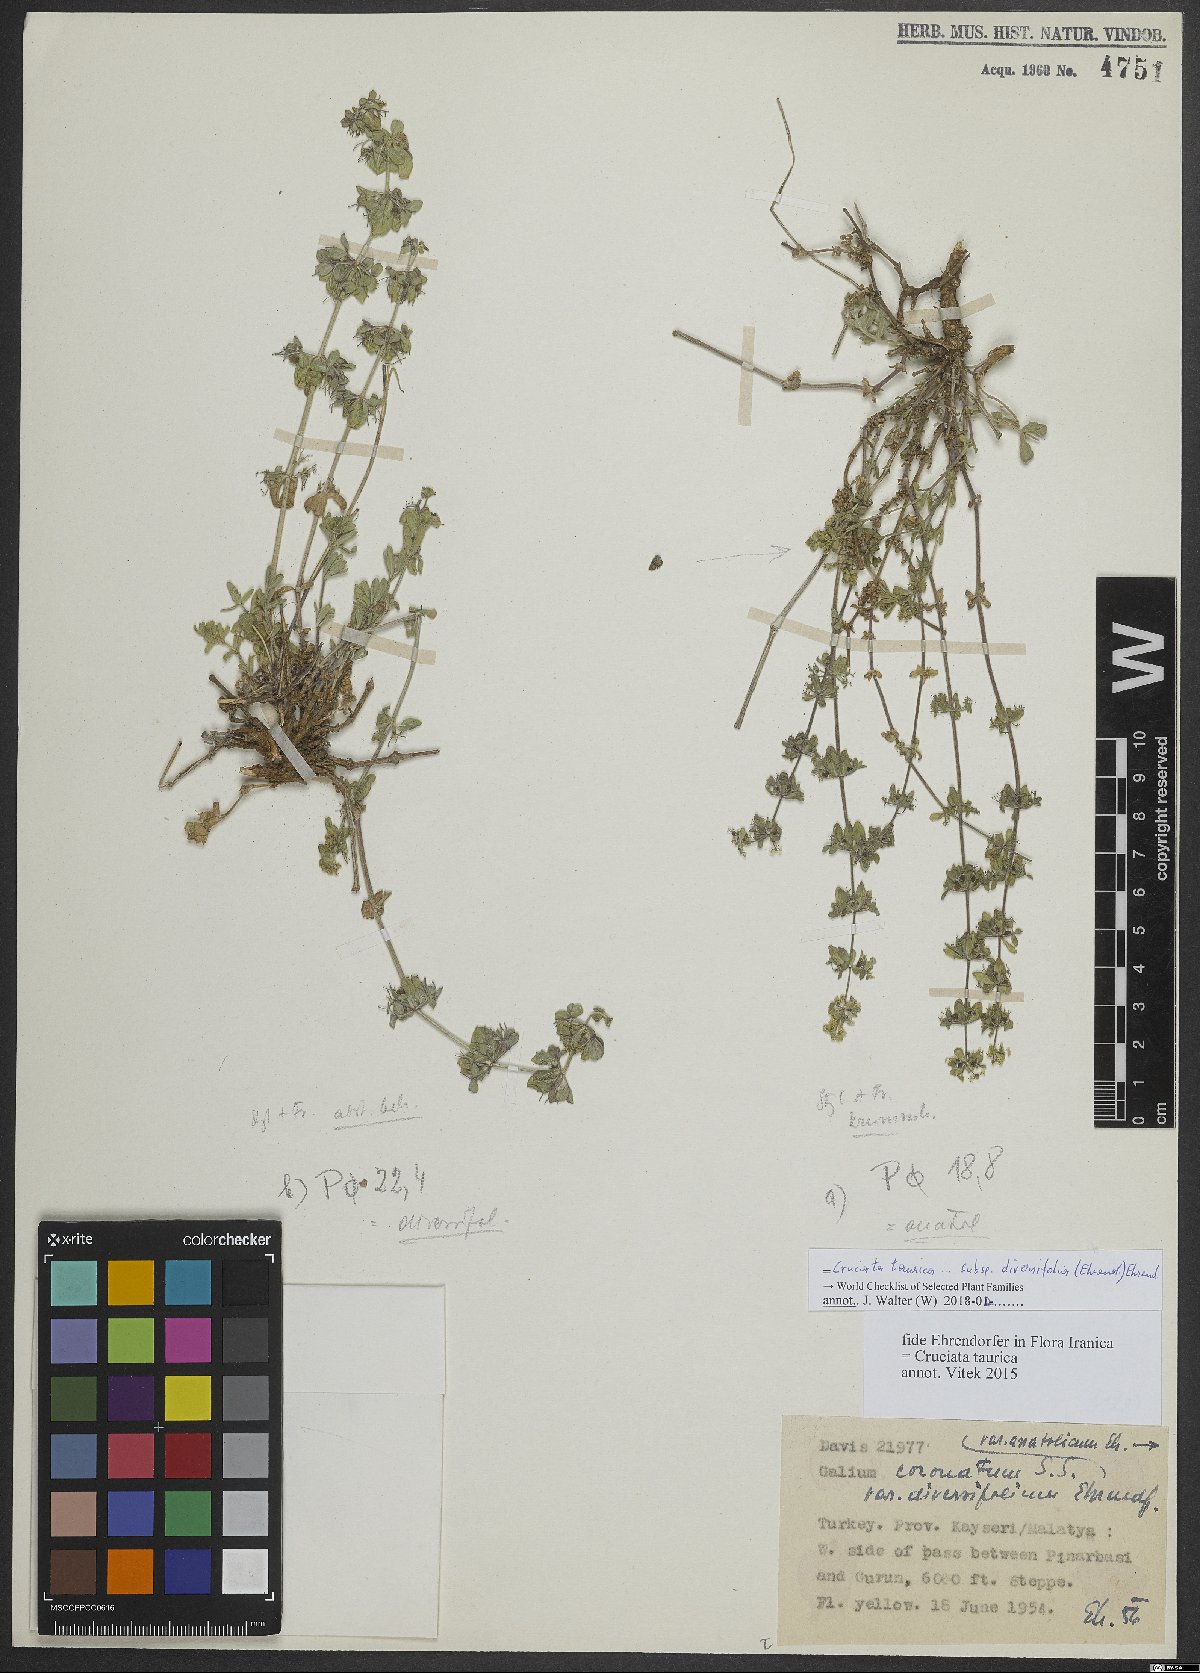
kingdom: Plantae
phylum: Tracheophyta
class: Magnoliopsida
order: Gentianales
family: Rubiaceae
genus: Cruciata
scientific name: Cruciata taurica
